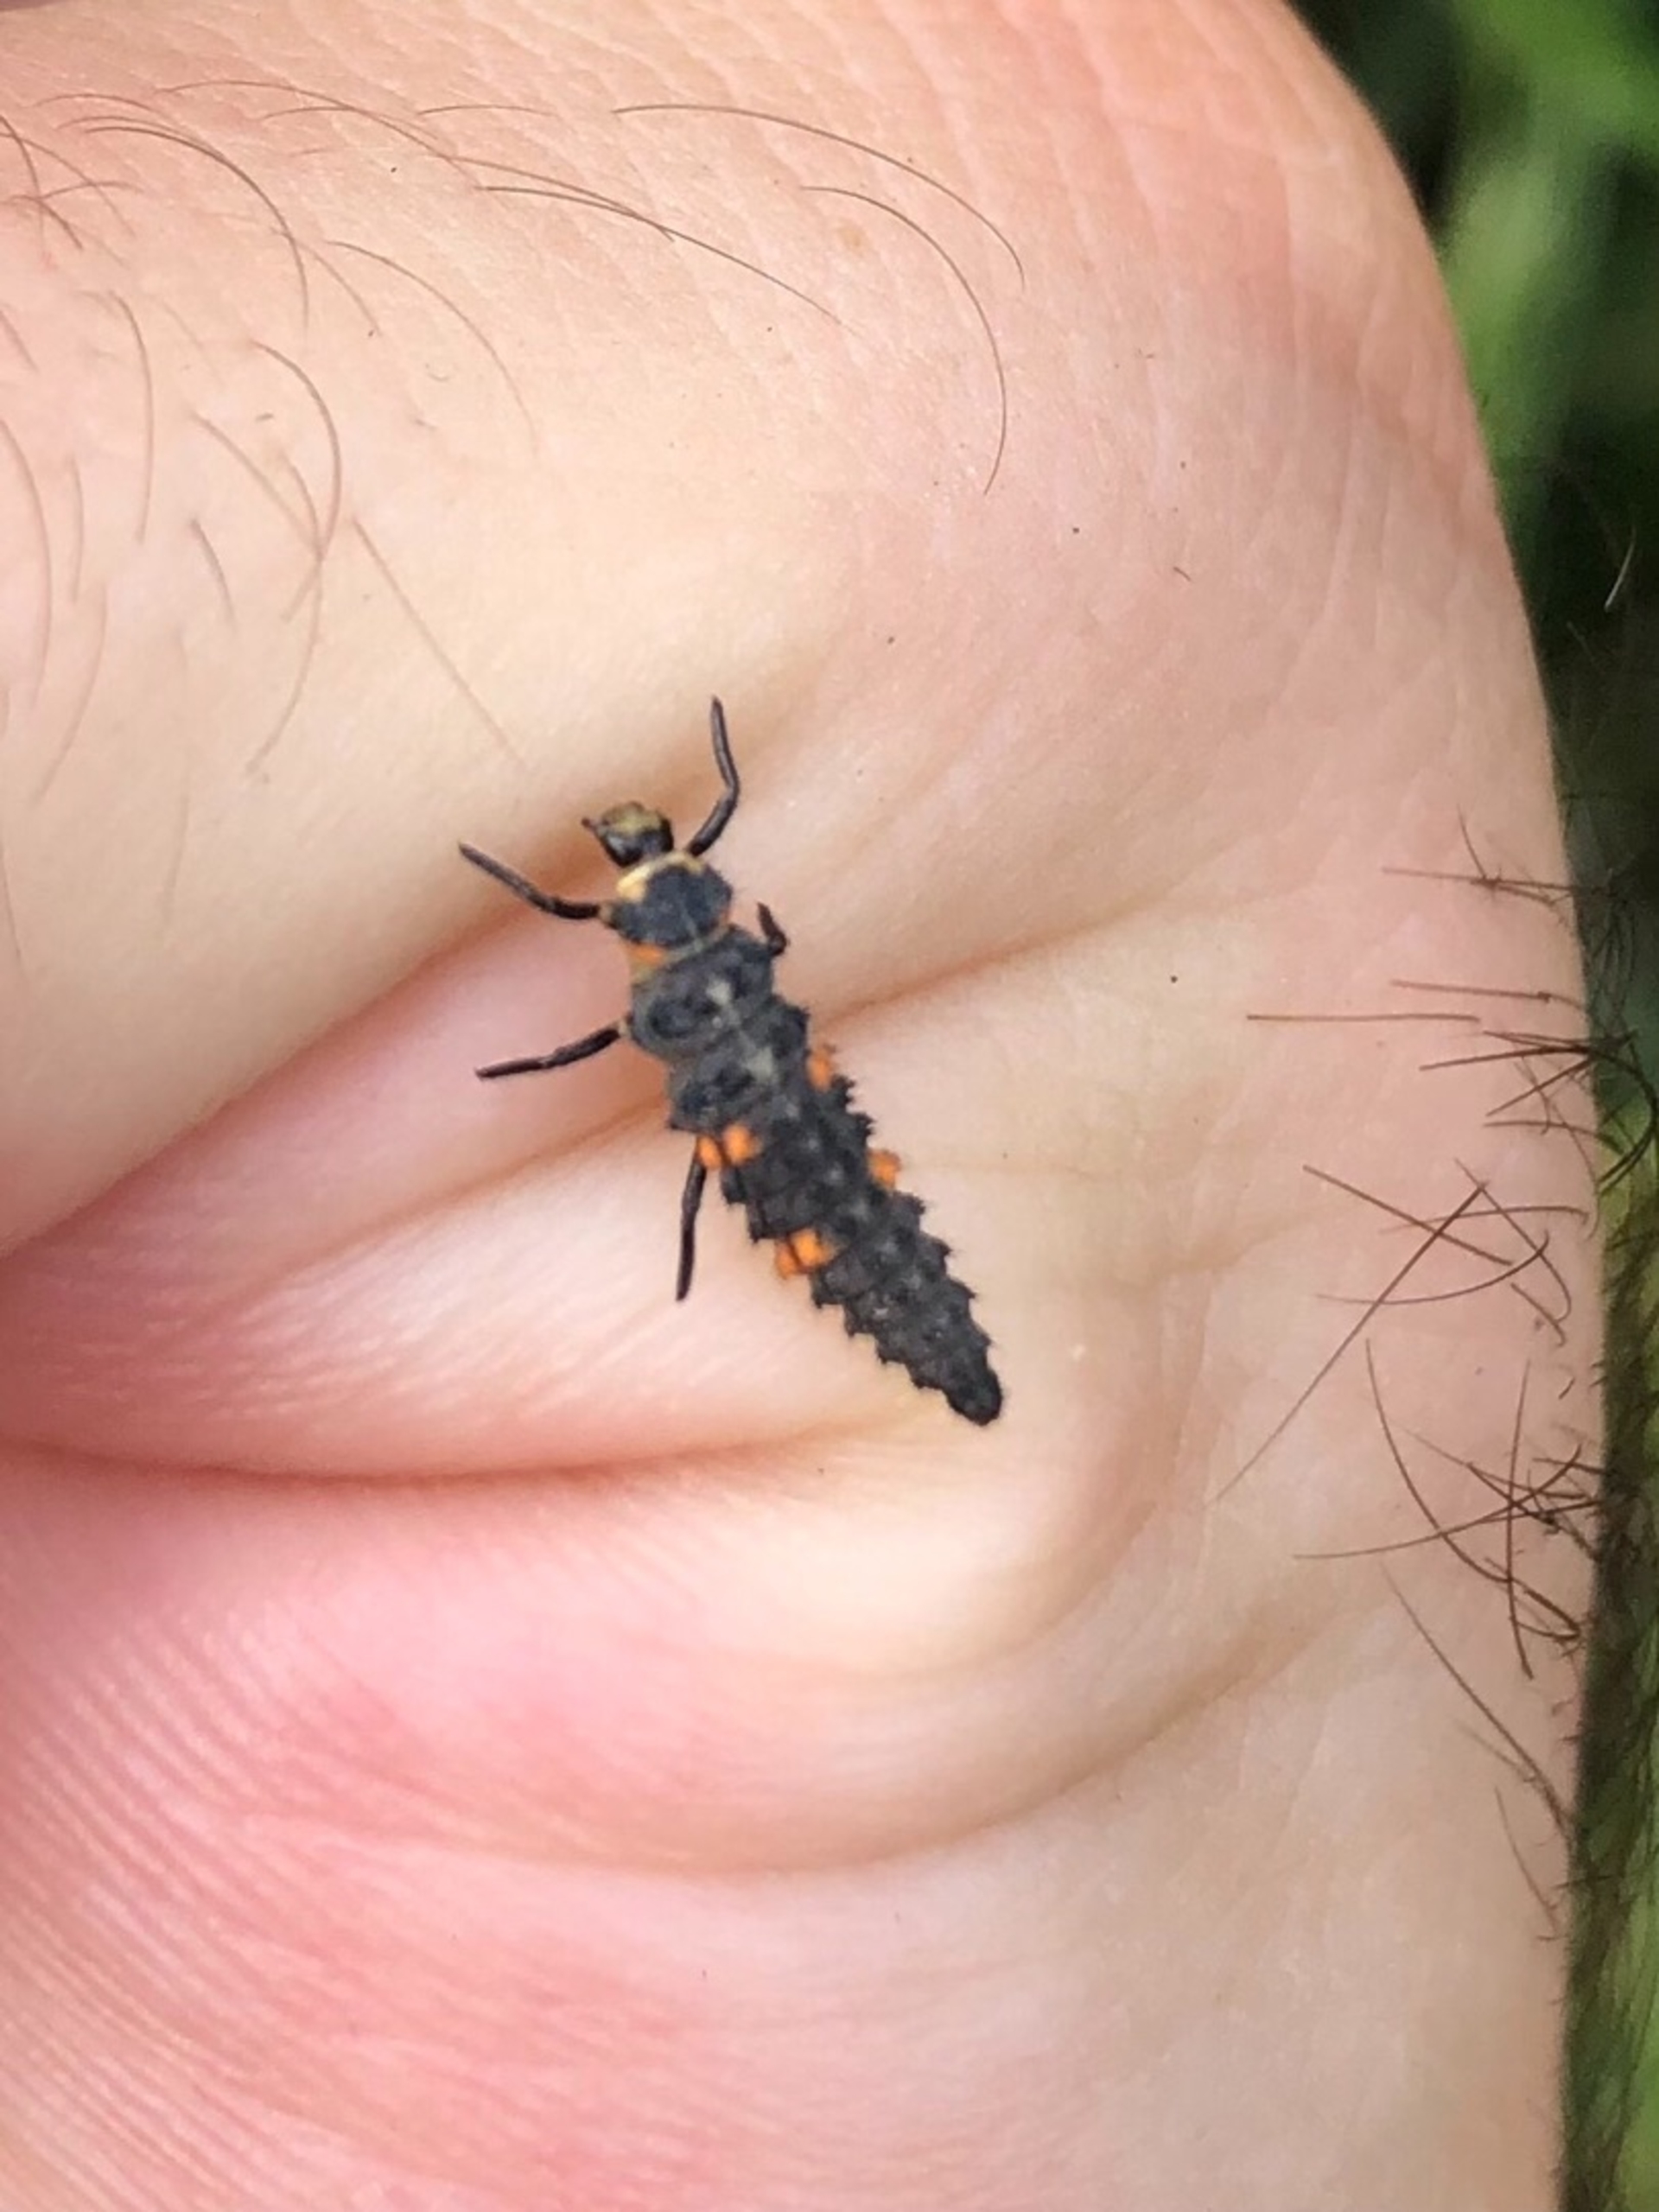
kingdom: Animalia
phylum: Arthropoda
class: Insecta
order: Coleoptera
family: Coccinellidae
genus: Coccinella
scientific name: Coccinella septempunctata
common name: Syvplettet mariehøne
